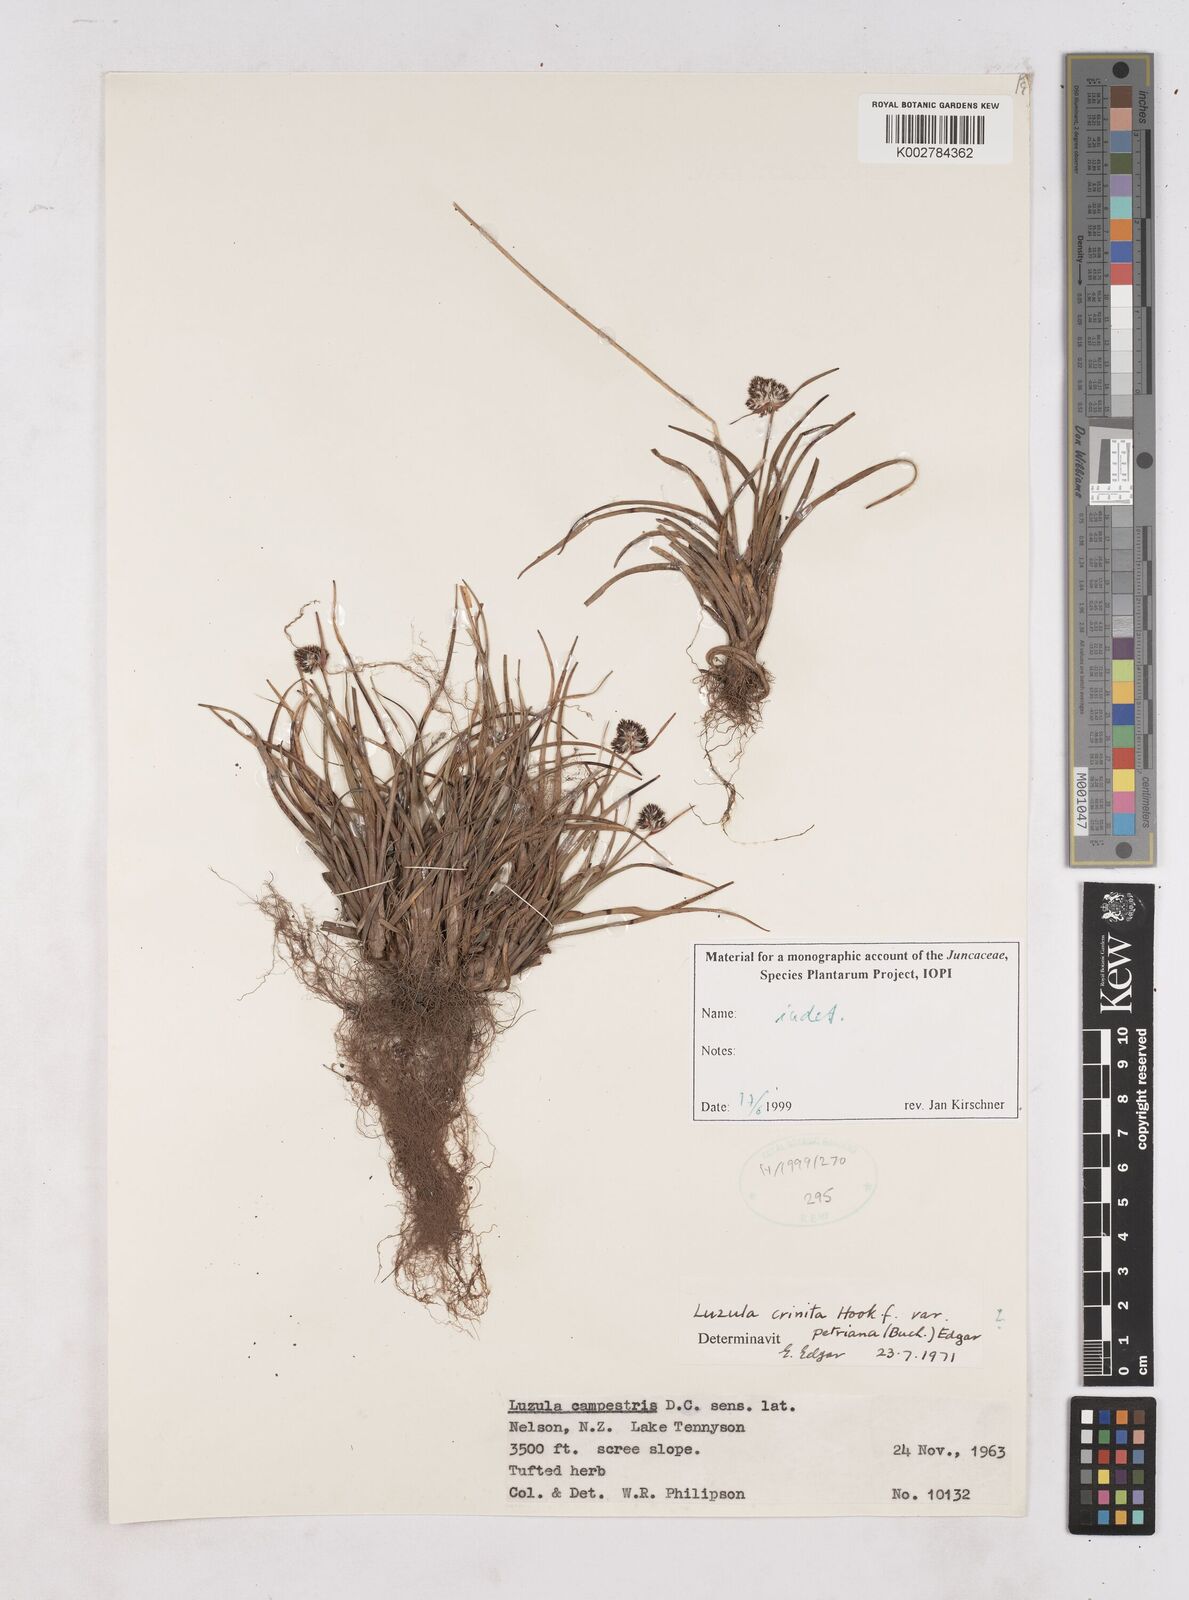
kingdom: Plantae
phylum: Tracheophyta
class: Liliopsida
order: Poales
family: Juncaceae
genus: Luzula
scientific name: Luzula
